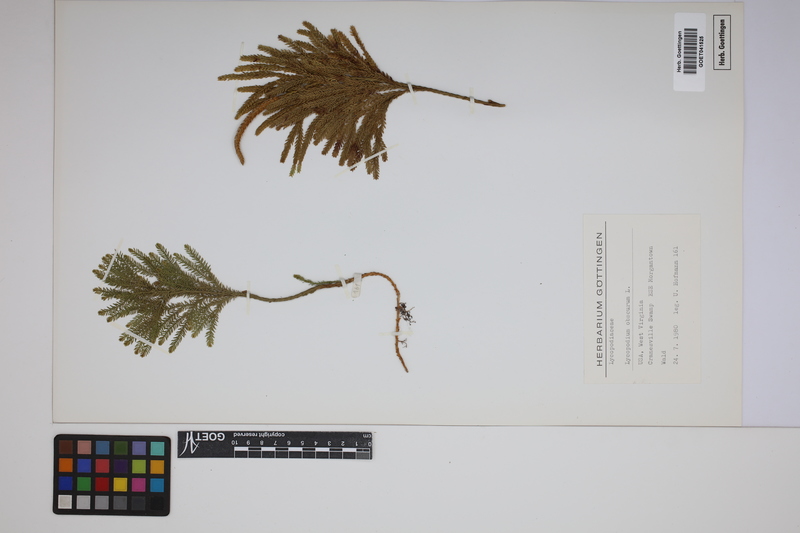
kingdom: Plantae
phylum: Tracheophyta
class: Lycopodiopsida
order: Lycopodiales
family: Lycopodiaceae
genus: Dendrolycopodium
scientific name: Dendrolycopodium obscurum
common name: Common ground-pine
